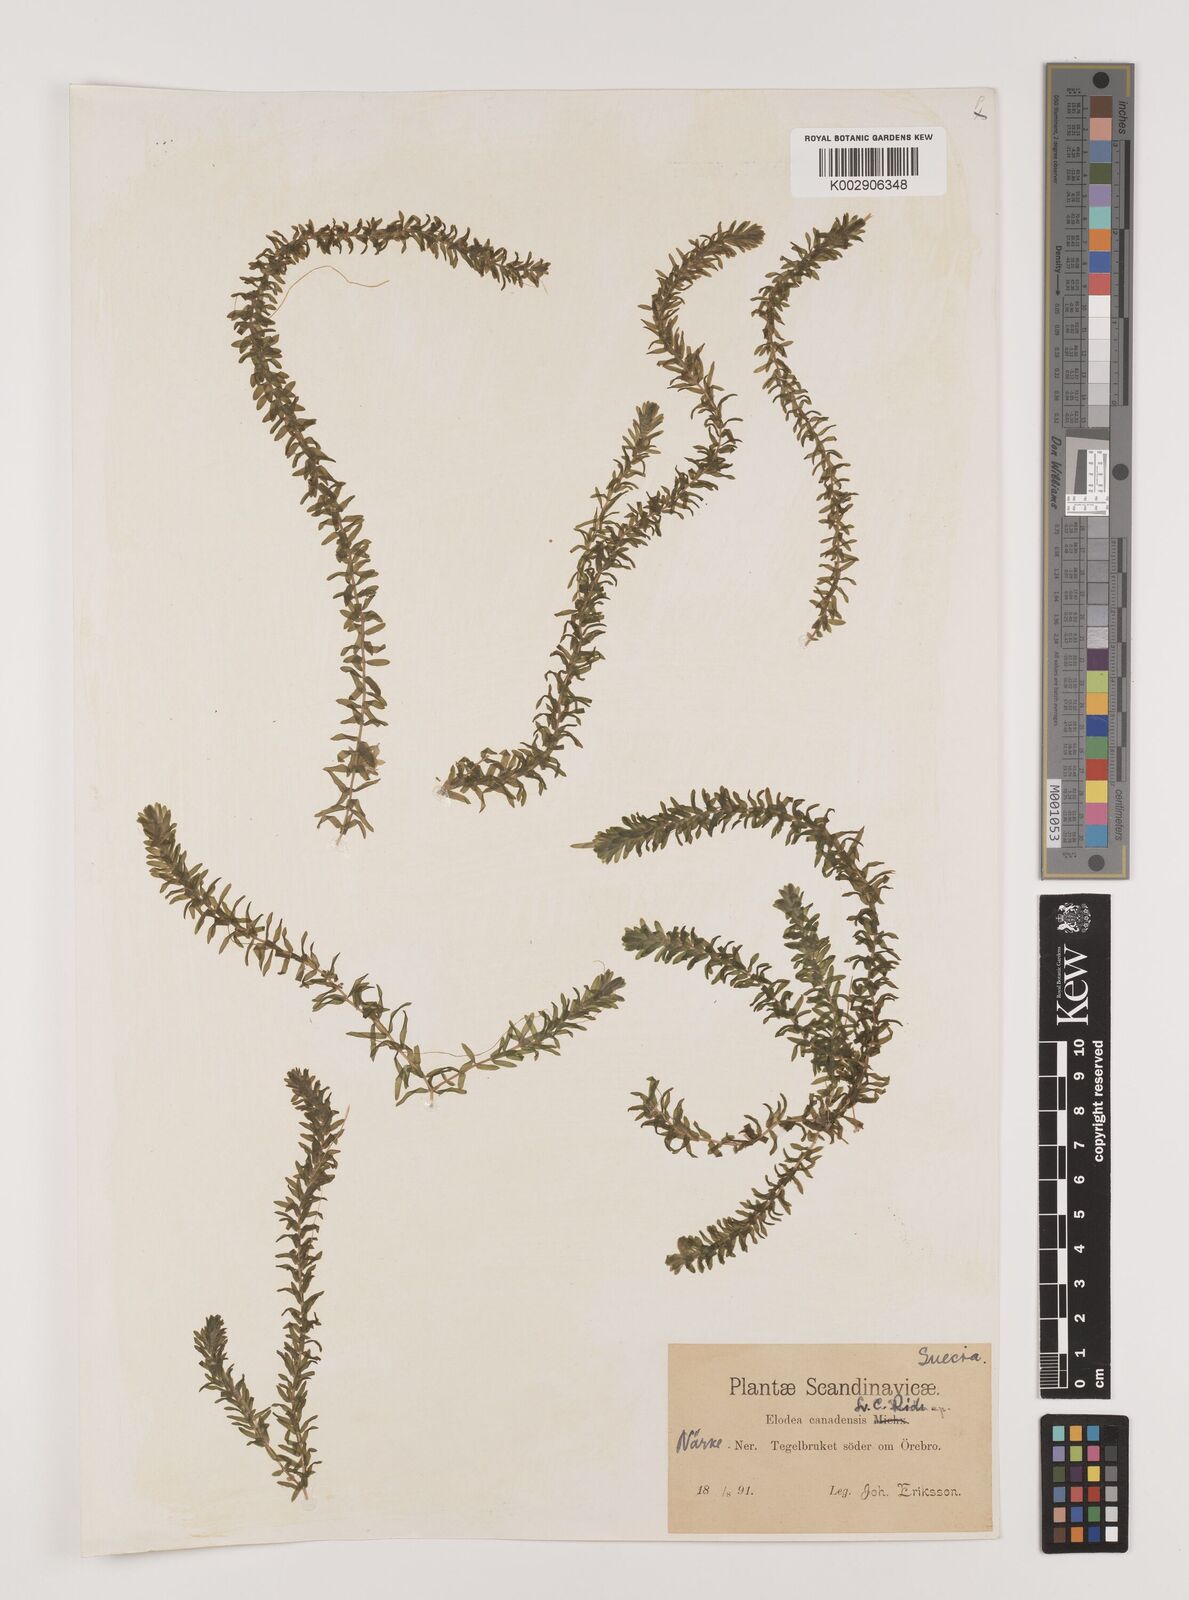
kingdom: Plantae
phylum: Tracheophyta
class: Liliopsida
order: Alismatales
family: Hydrocharitaceae
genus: Elodea
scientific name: Elodea canadensis
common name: Canadian waterweed
